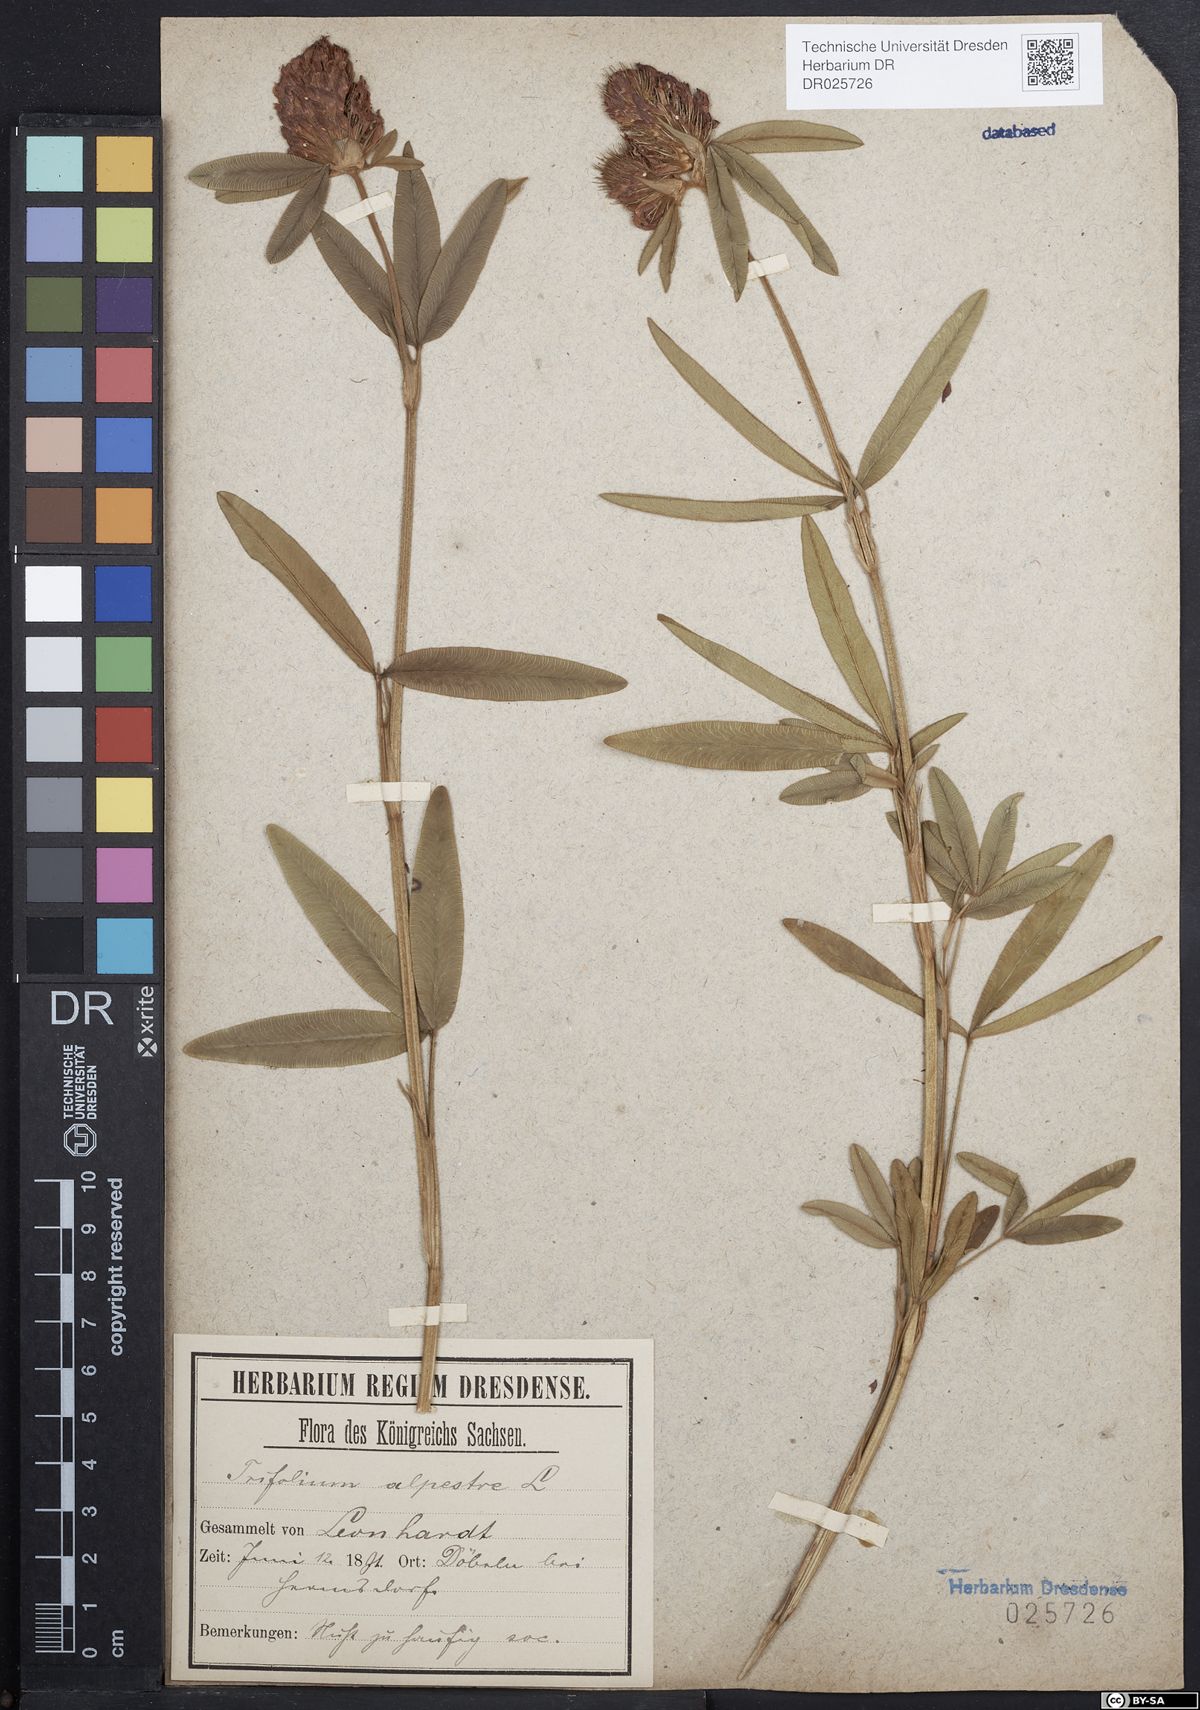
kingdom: Plantae
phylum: Tracheophyta
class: Magnoliopsida
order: Fabales
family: Fabaceae
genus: Trifolium
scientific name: Trifolium alpestre
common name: Owl-head clover
